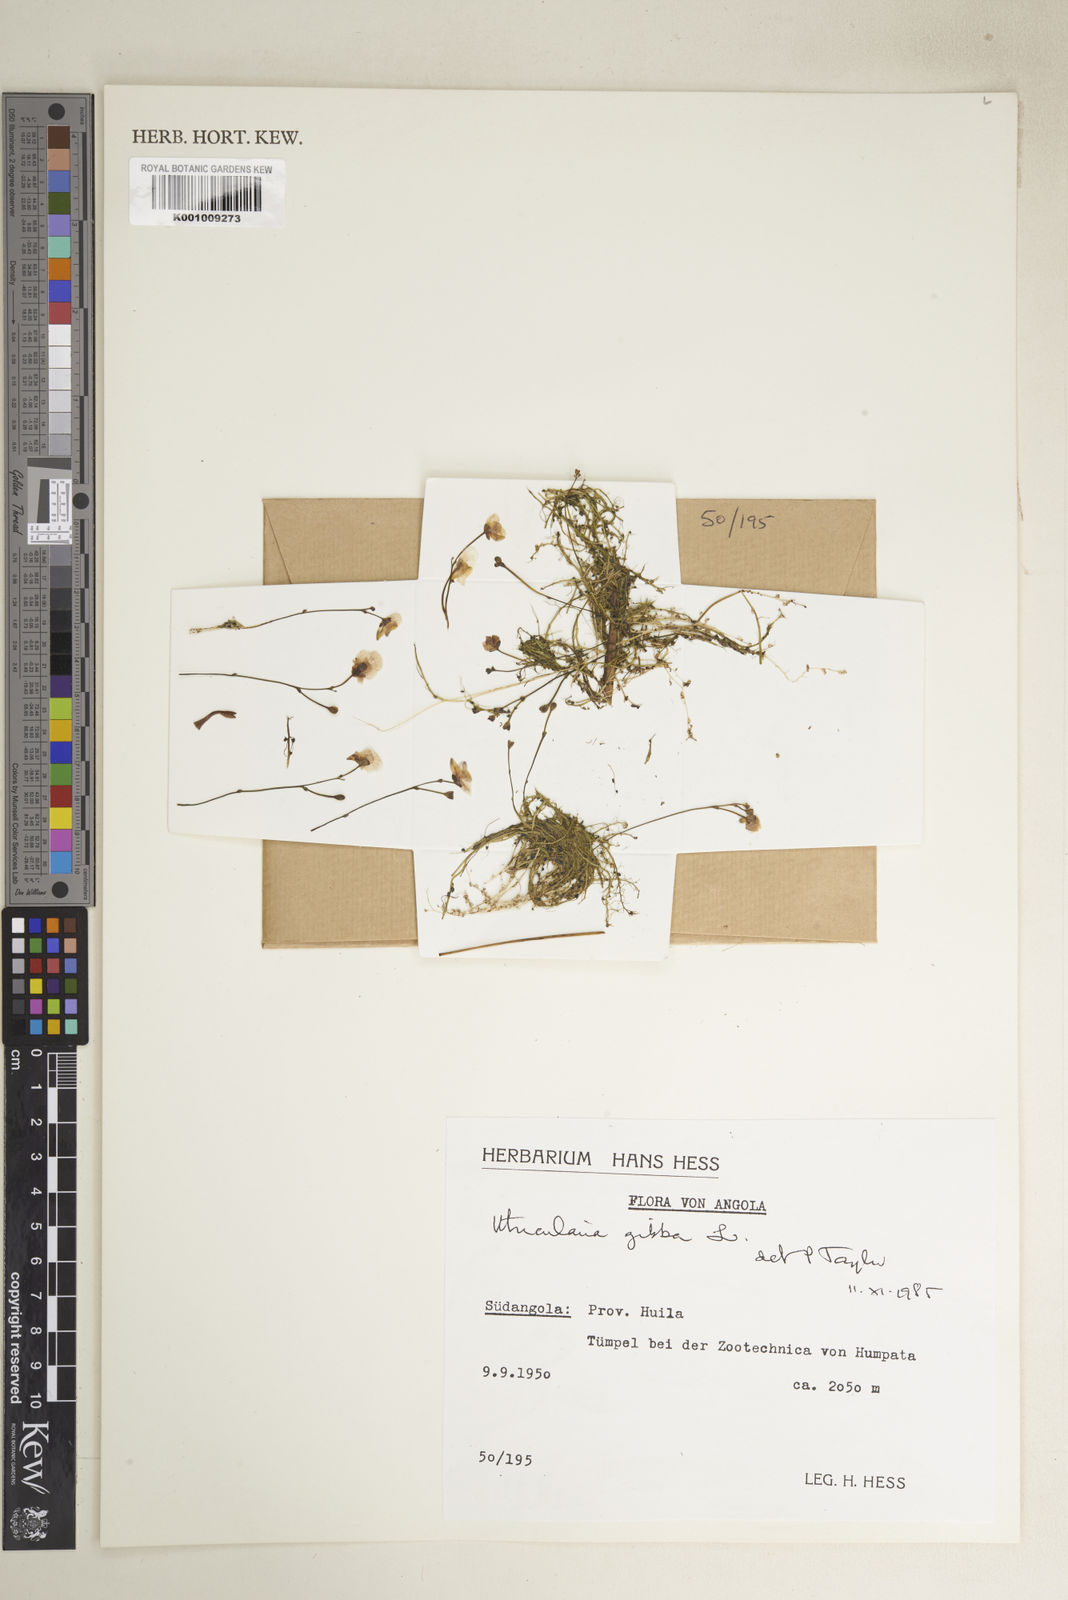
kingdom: Plantae
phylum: Tracheophyta
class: Magnoliopsida
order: Lamiales
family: Lentibulariaceae
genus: Utricularia
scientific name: Utricularia gibba
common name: Humped bladderwort
